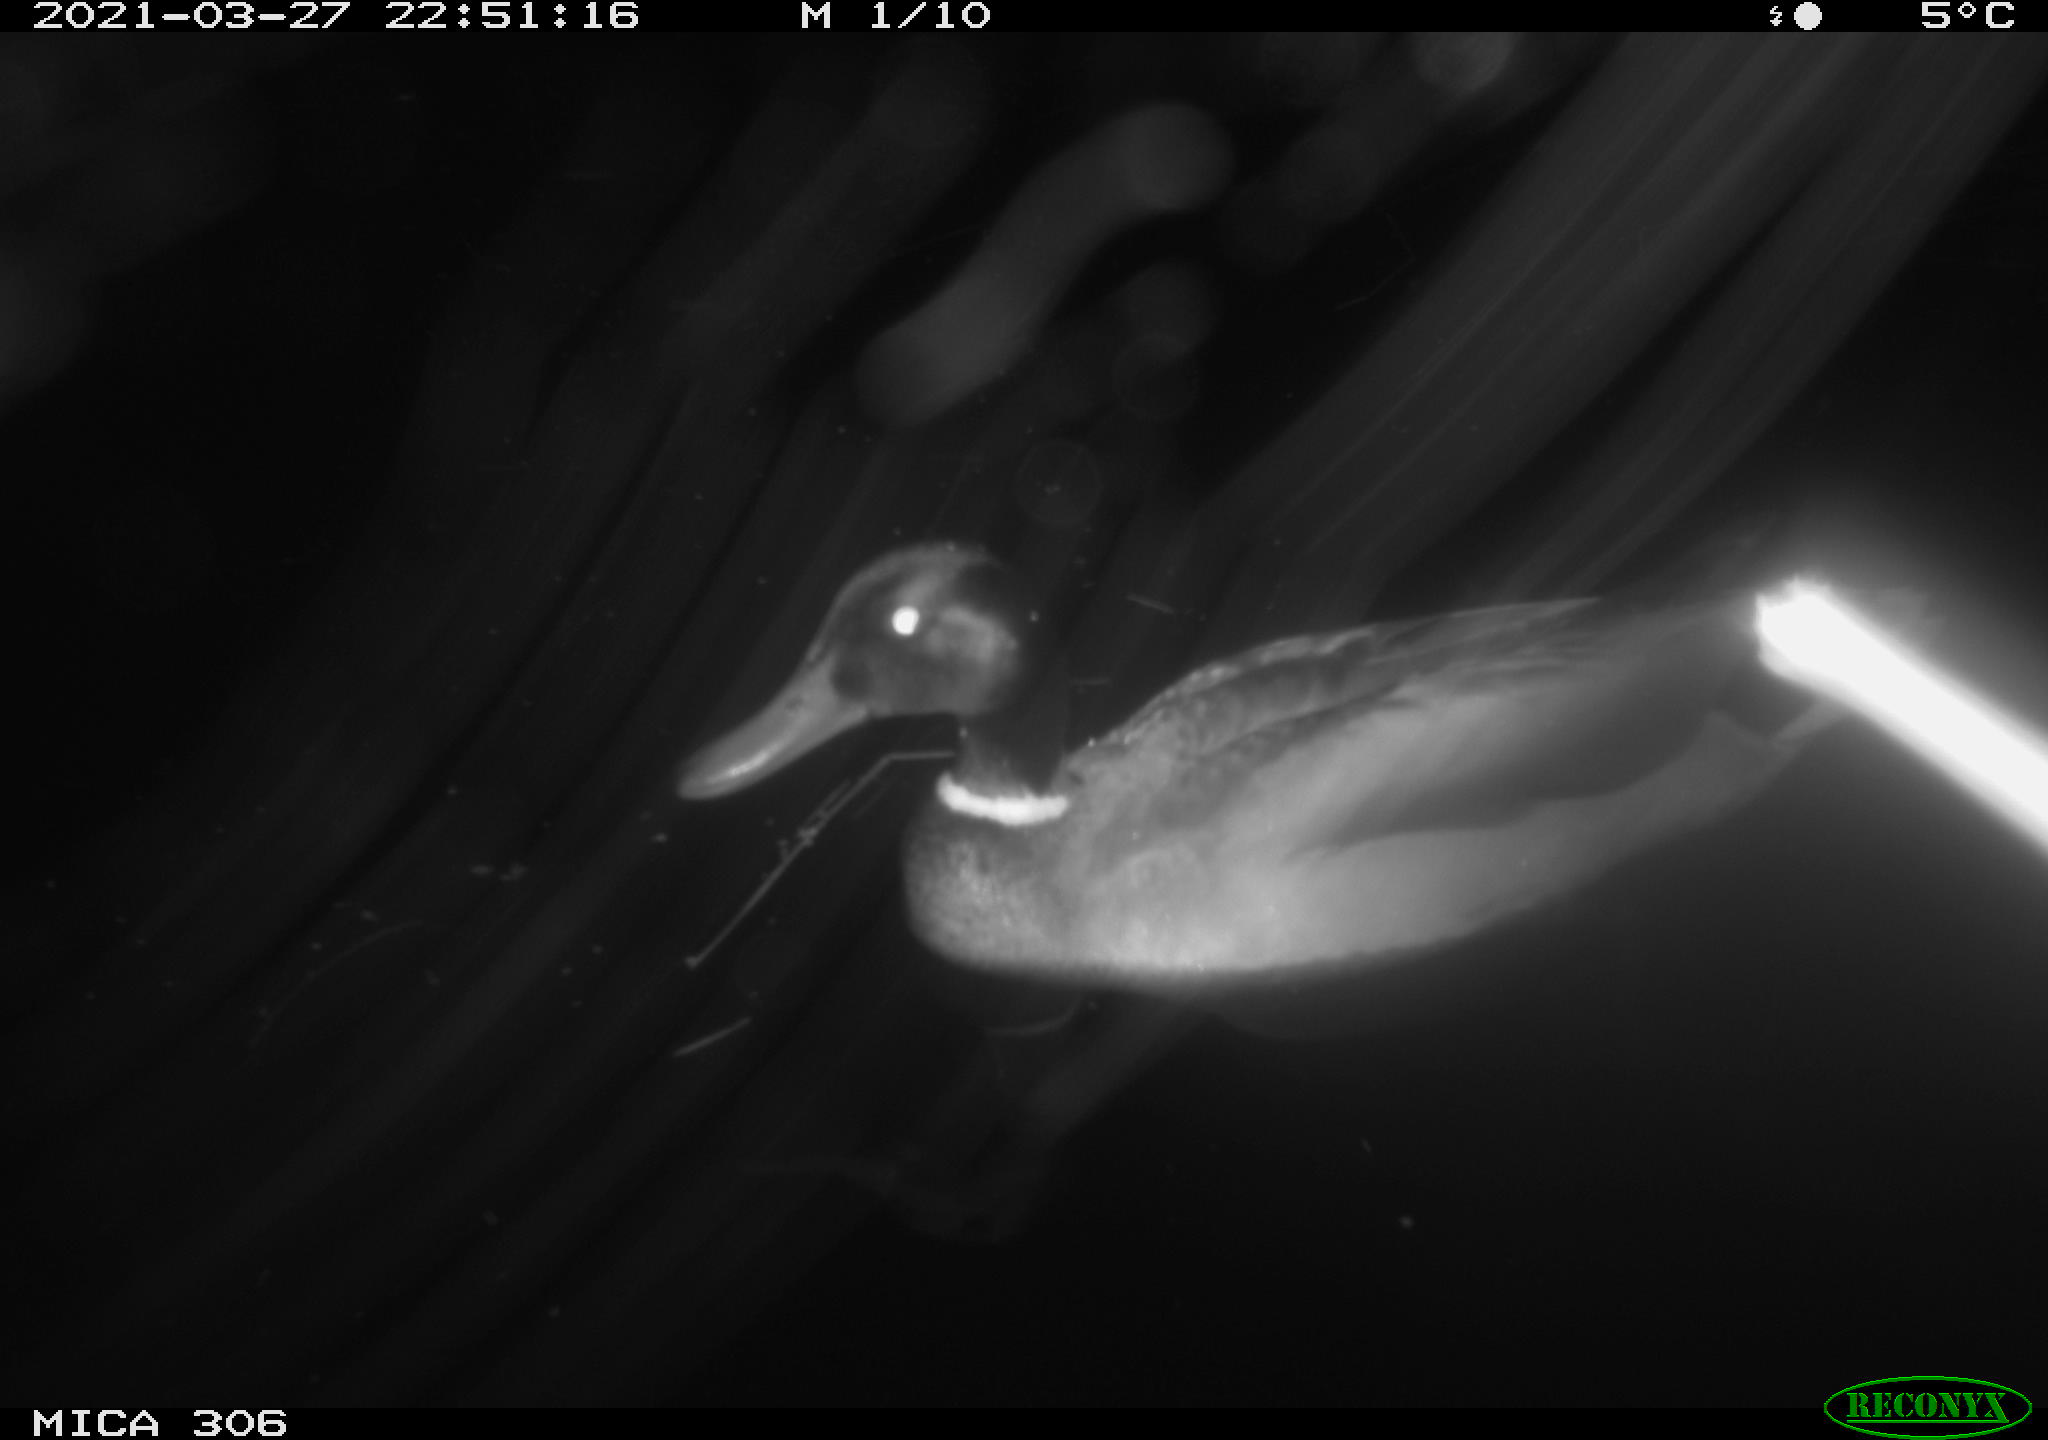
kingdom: Animalia
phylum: Chordata
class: Aves
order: Anseriformes
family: Anatidae
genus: Anas
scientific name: Anas platyrhynchos
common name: Mallard
